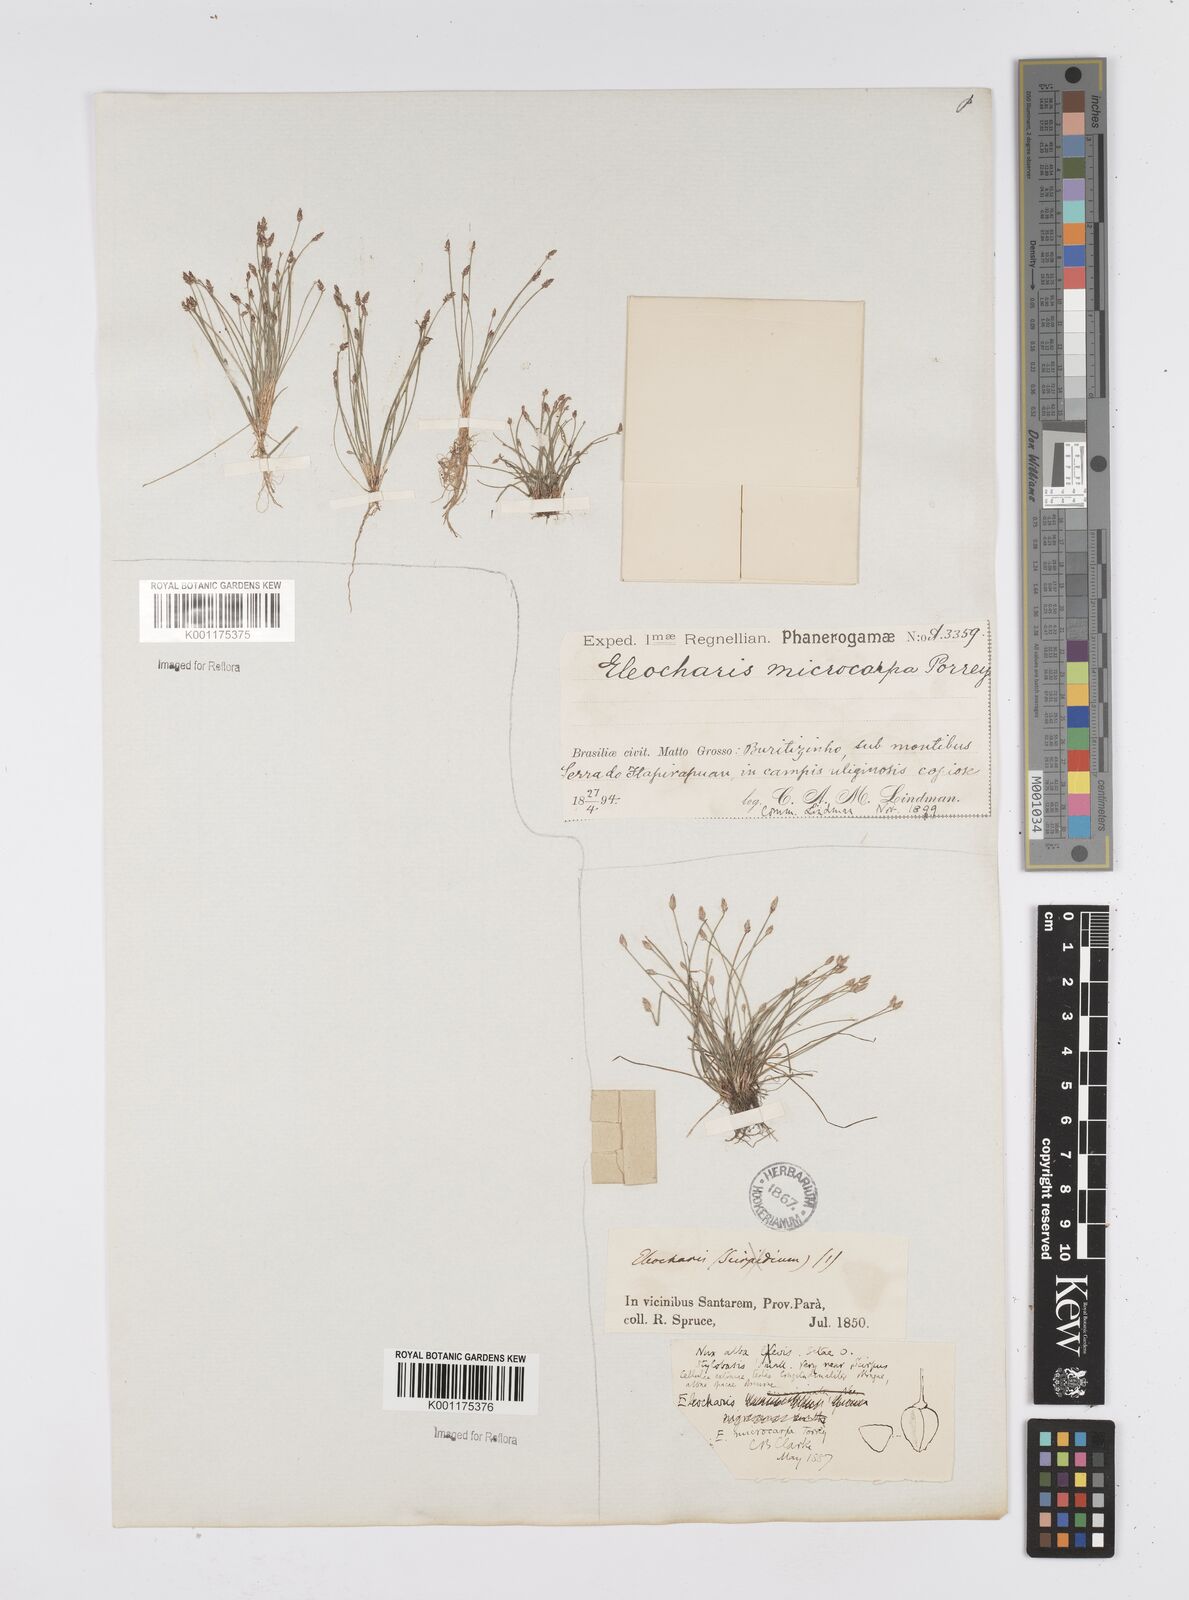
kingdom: Plantae
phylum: Tracheophyta
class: Liliopsida
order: Poales
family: Cyperaceae
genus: Eleocharis
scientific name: Eleocharis microcarpa
